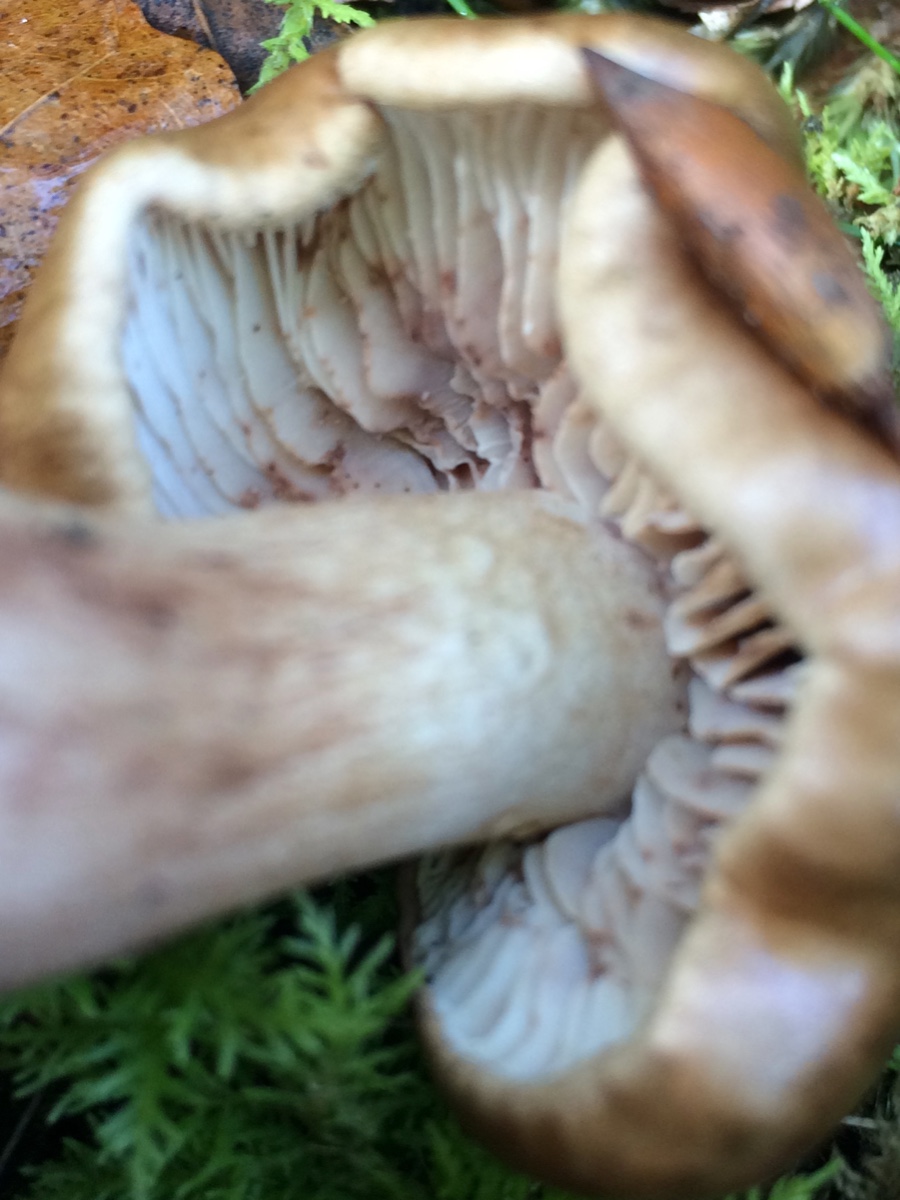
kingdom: Fungi
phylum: Basidiomycota
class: Agaricomycetes
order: Agaricales
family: Tricholomataceae
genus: Tricholoma
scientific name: Tricholoma ustale
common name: sveden ridderhat
